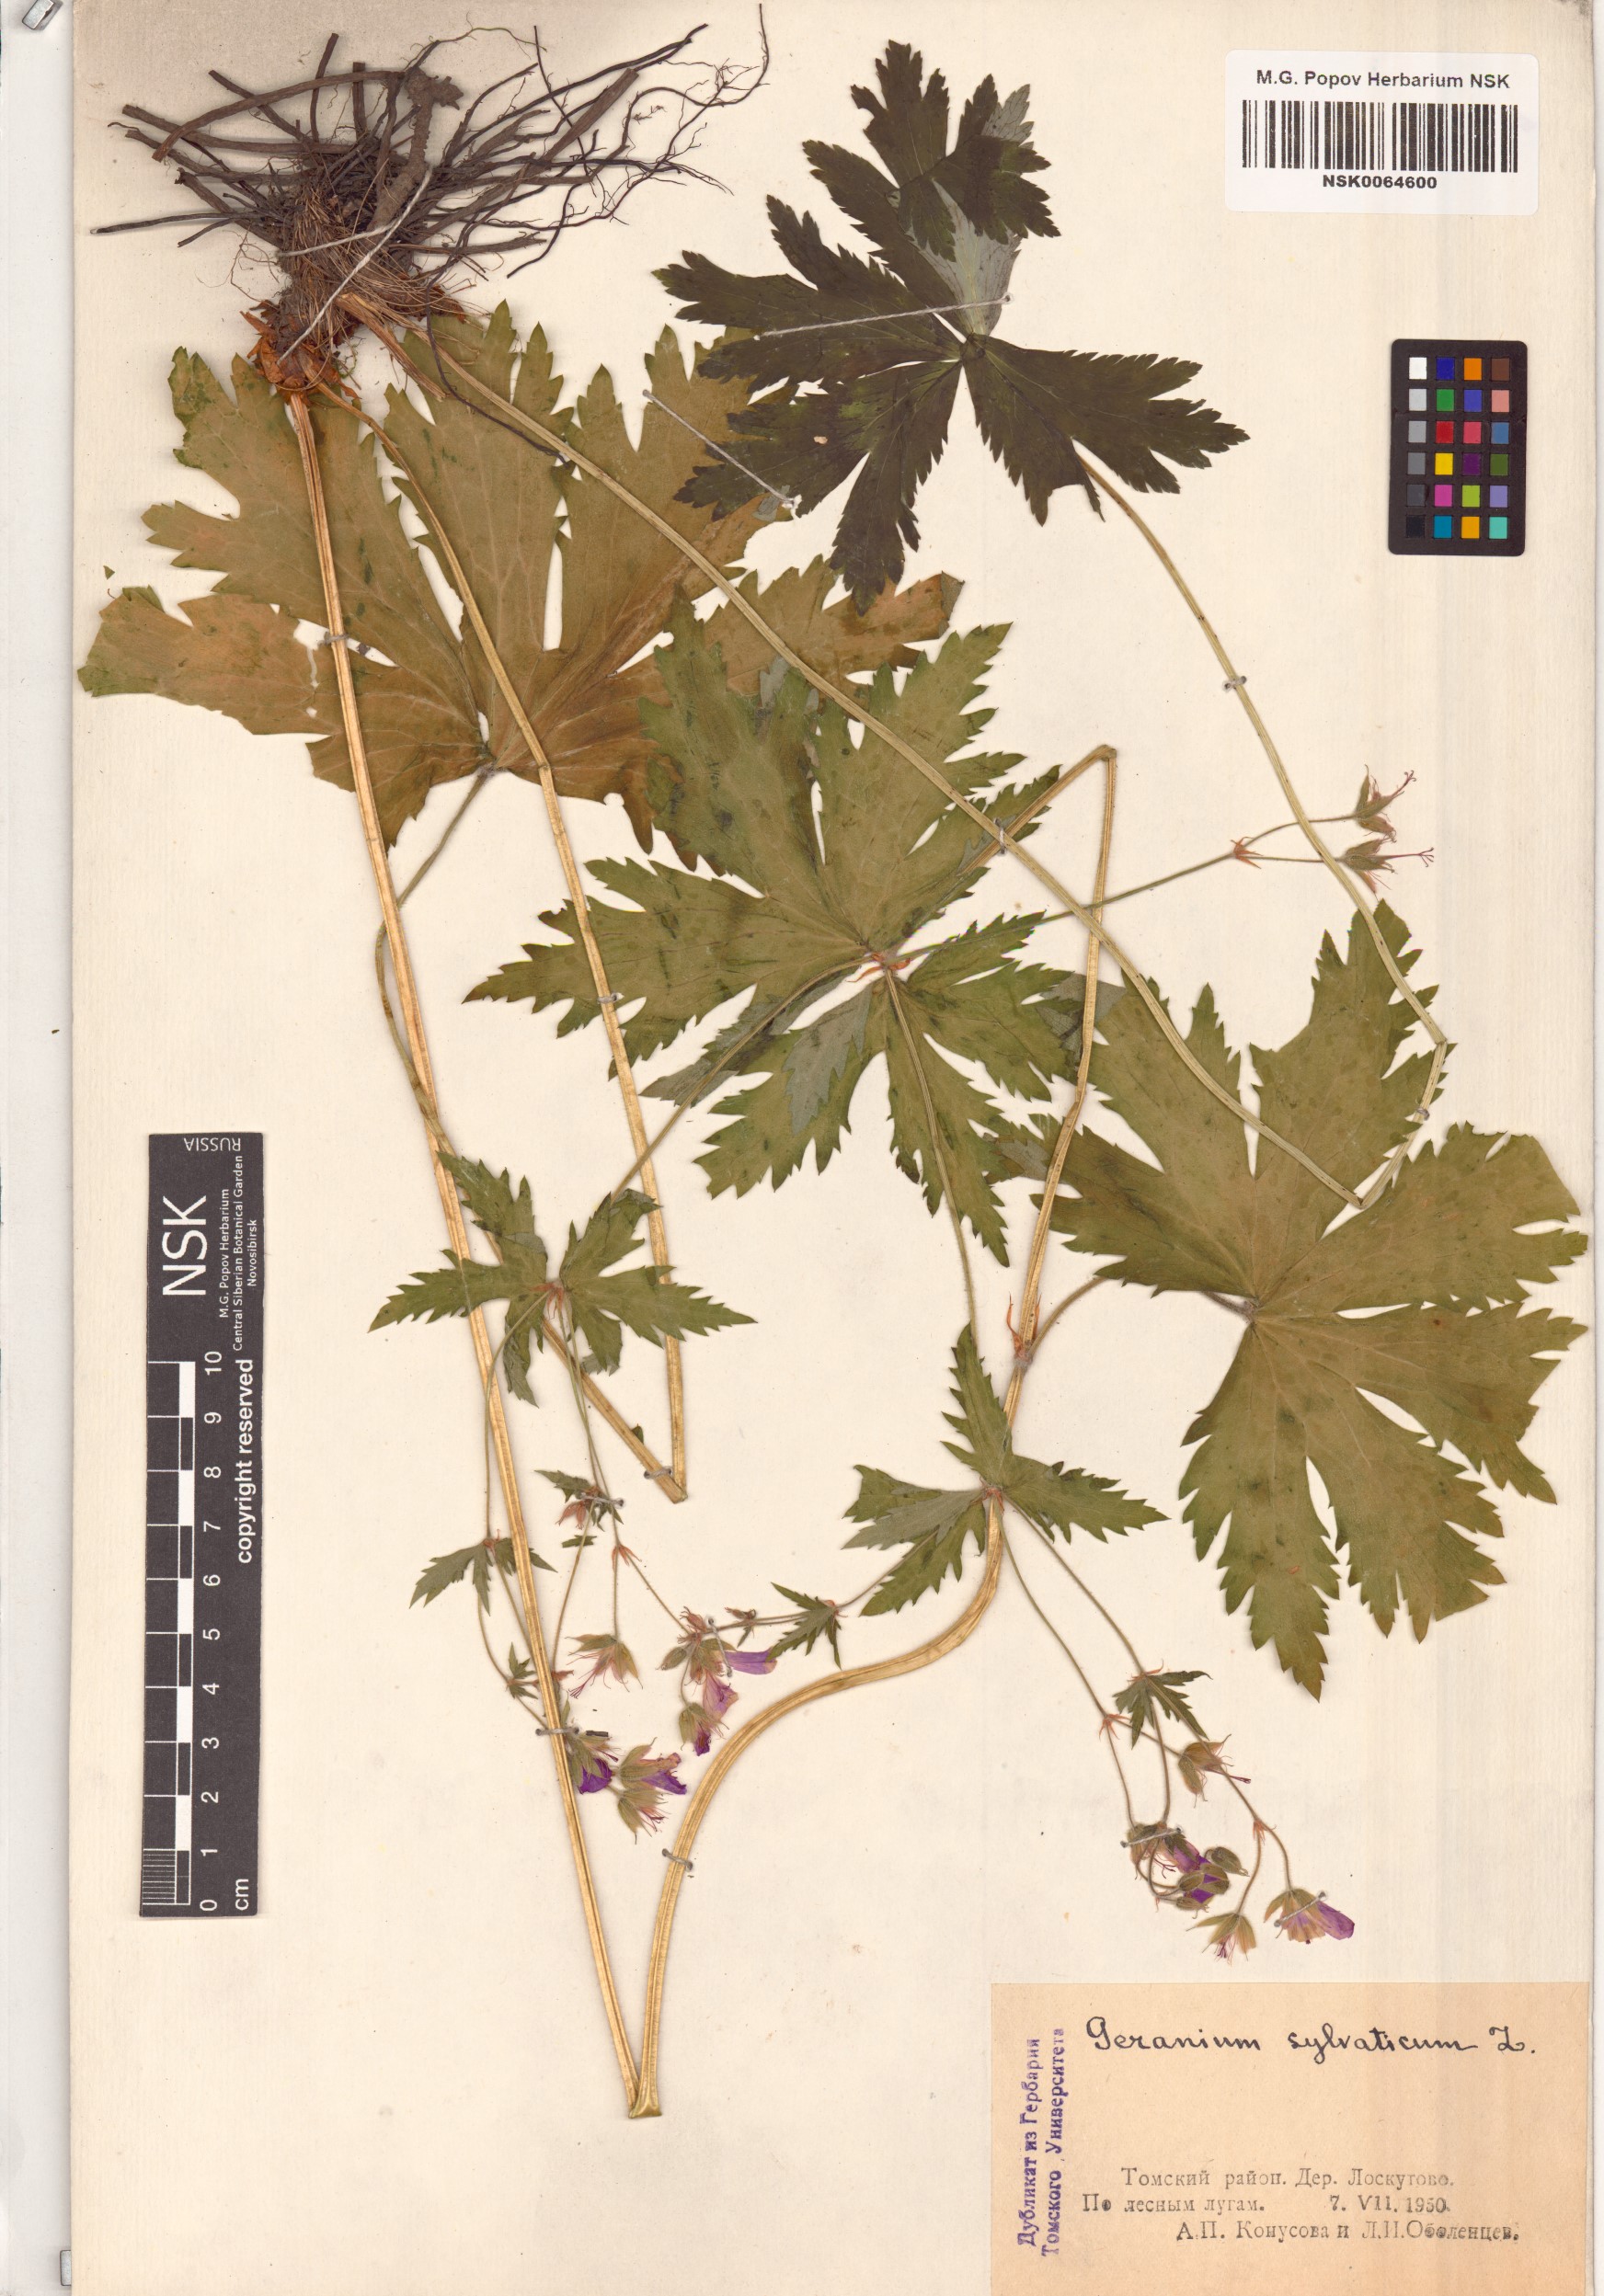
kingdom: Plantae
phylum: Tracheophyta
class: Magnoliopsida
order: Geraniales
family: Geraniaceae
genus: Geranium
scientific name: Geranium sylvaticum
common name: Wood crane's-bill
